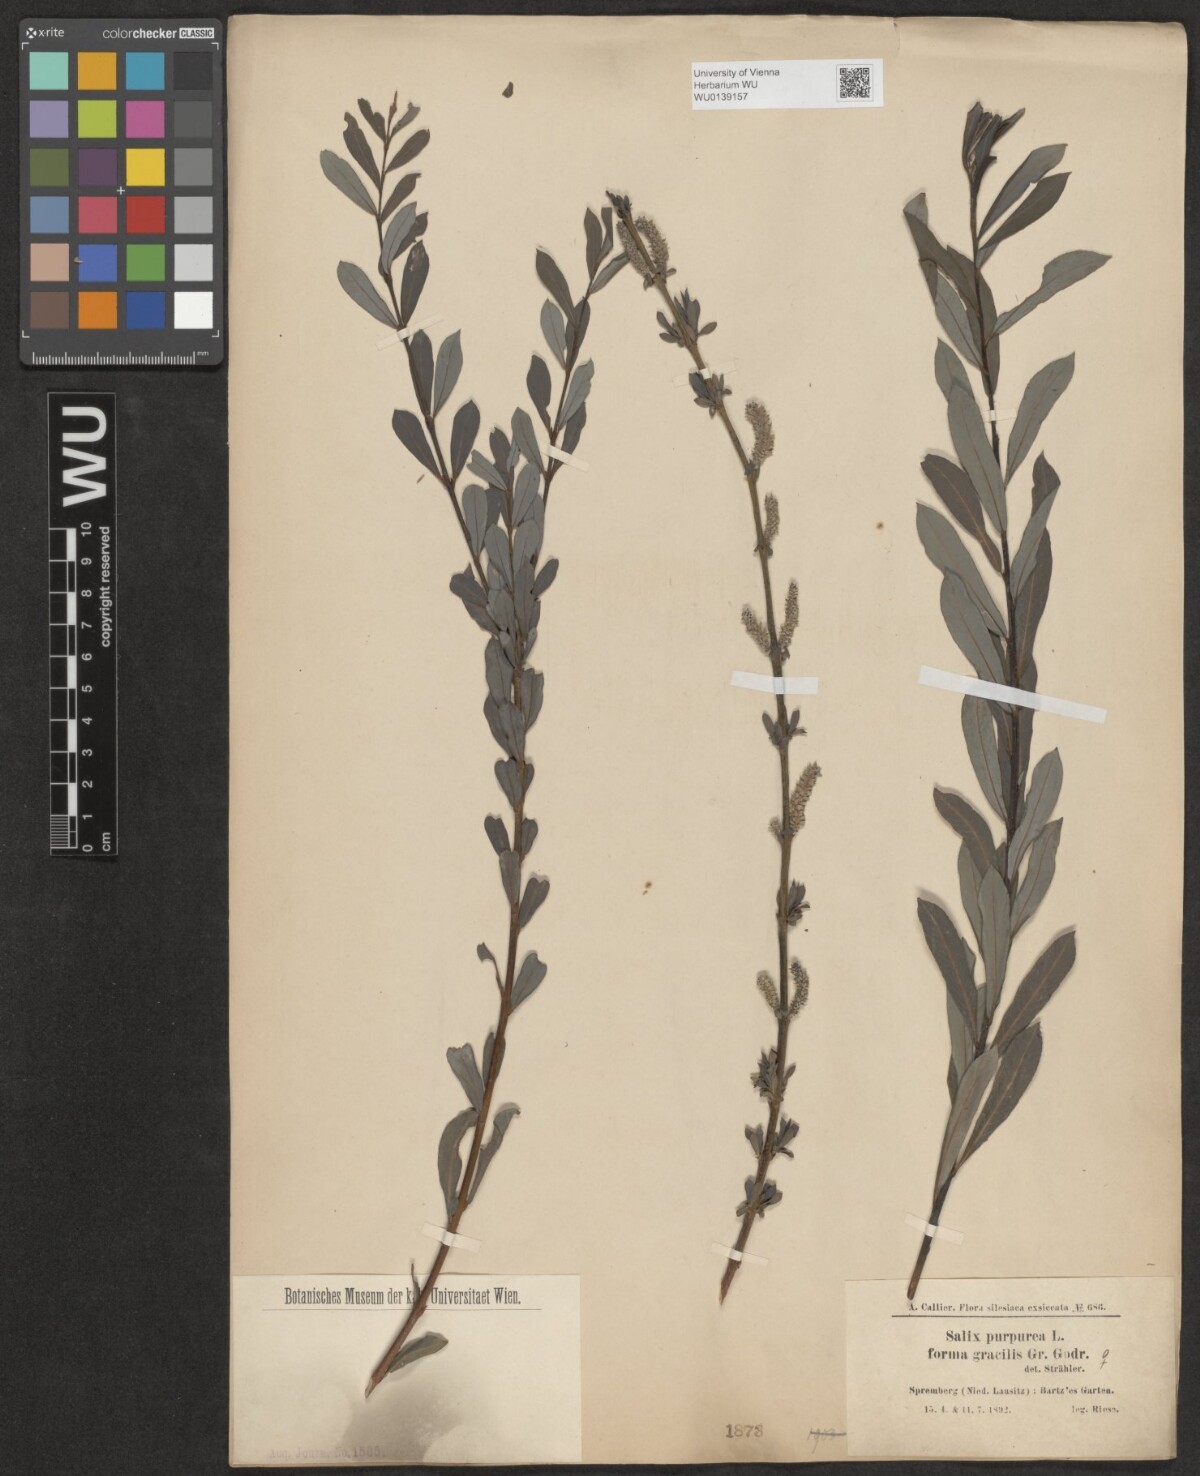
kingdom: Plantae
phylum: Tracheophyta
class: Magnoliopsida
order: Malpighiales
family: Salicaceae
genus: Salix
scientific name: Salix purpurea
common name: Purple willow
